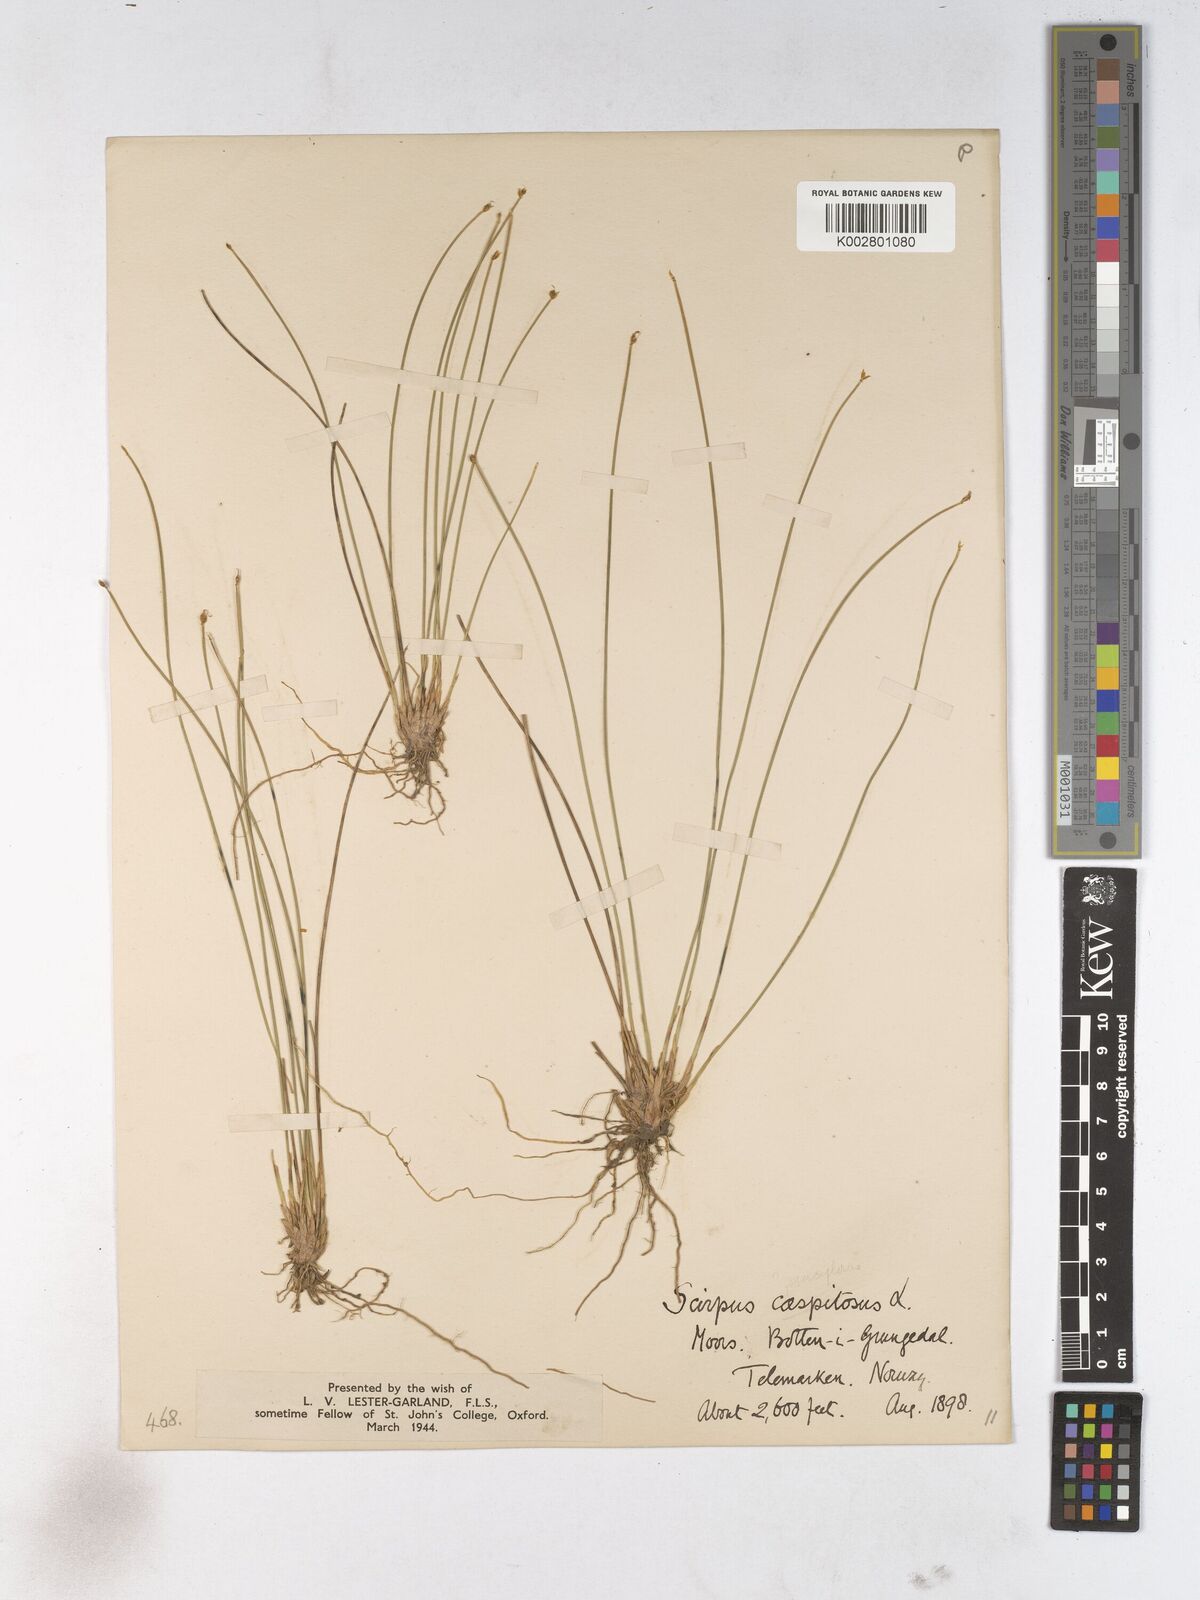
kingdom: Plantae
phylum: Tracheophyta
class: Liliopsida
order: Poales
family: Cyperaceae
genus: Trichophorum
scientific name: Trichophorum cespitosum
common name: Cespitose bulrush
